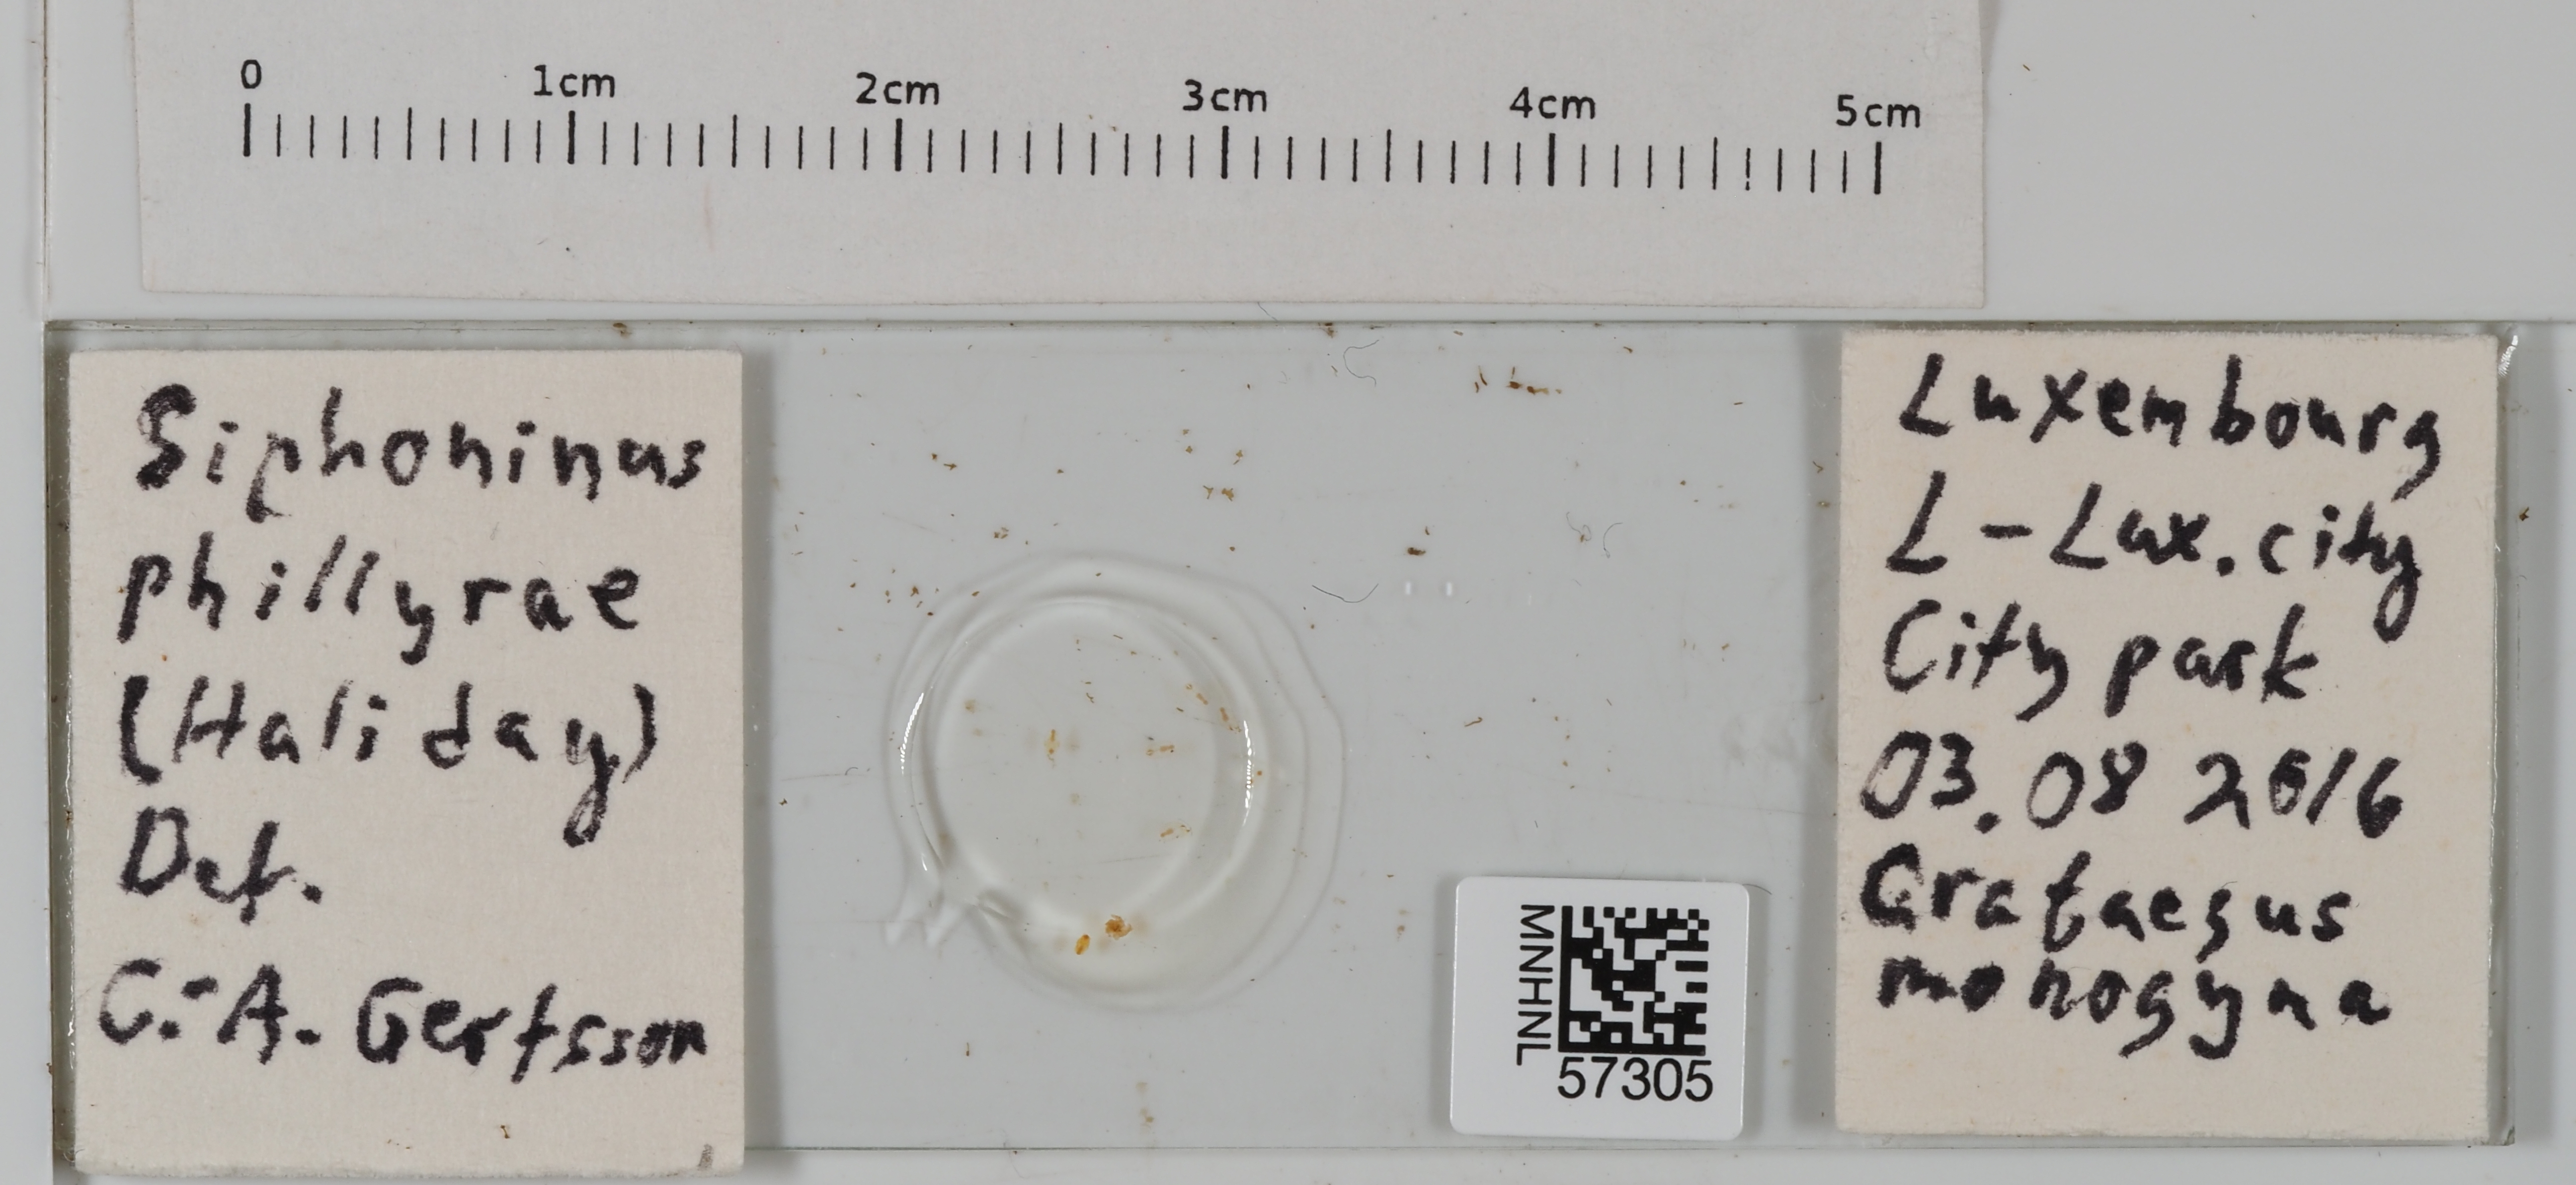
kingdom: Animalia
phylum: Arthropoda
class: Insecta
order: Hemiptera
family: Aleyrodidae
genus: Siphoninus
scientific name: Siphoninus phillyreae
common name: Ash whitefly
